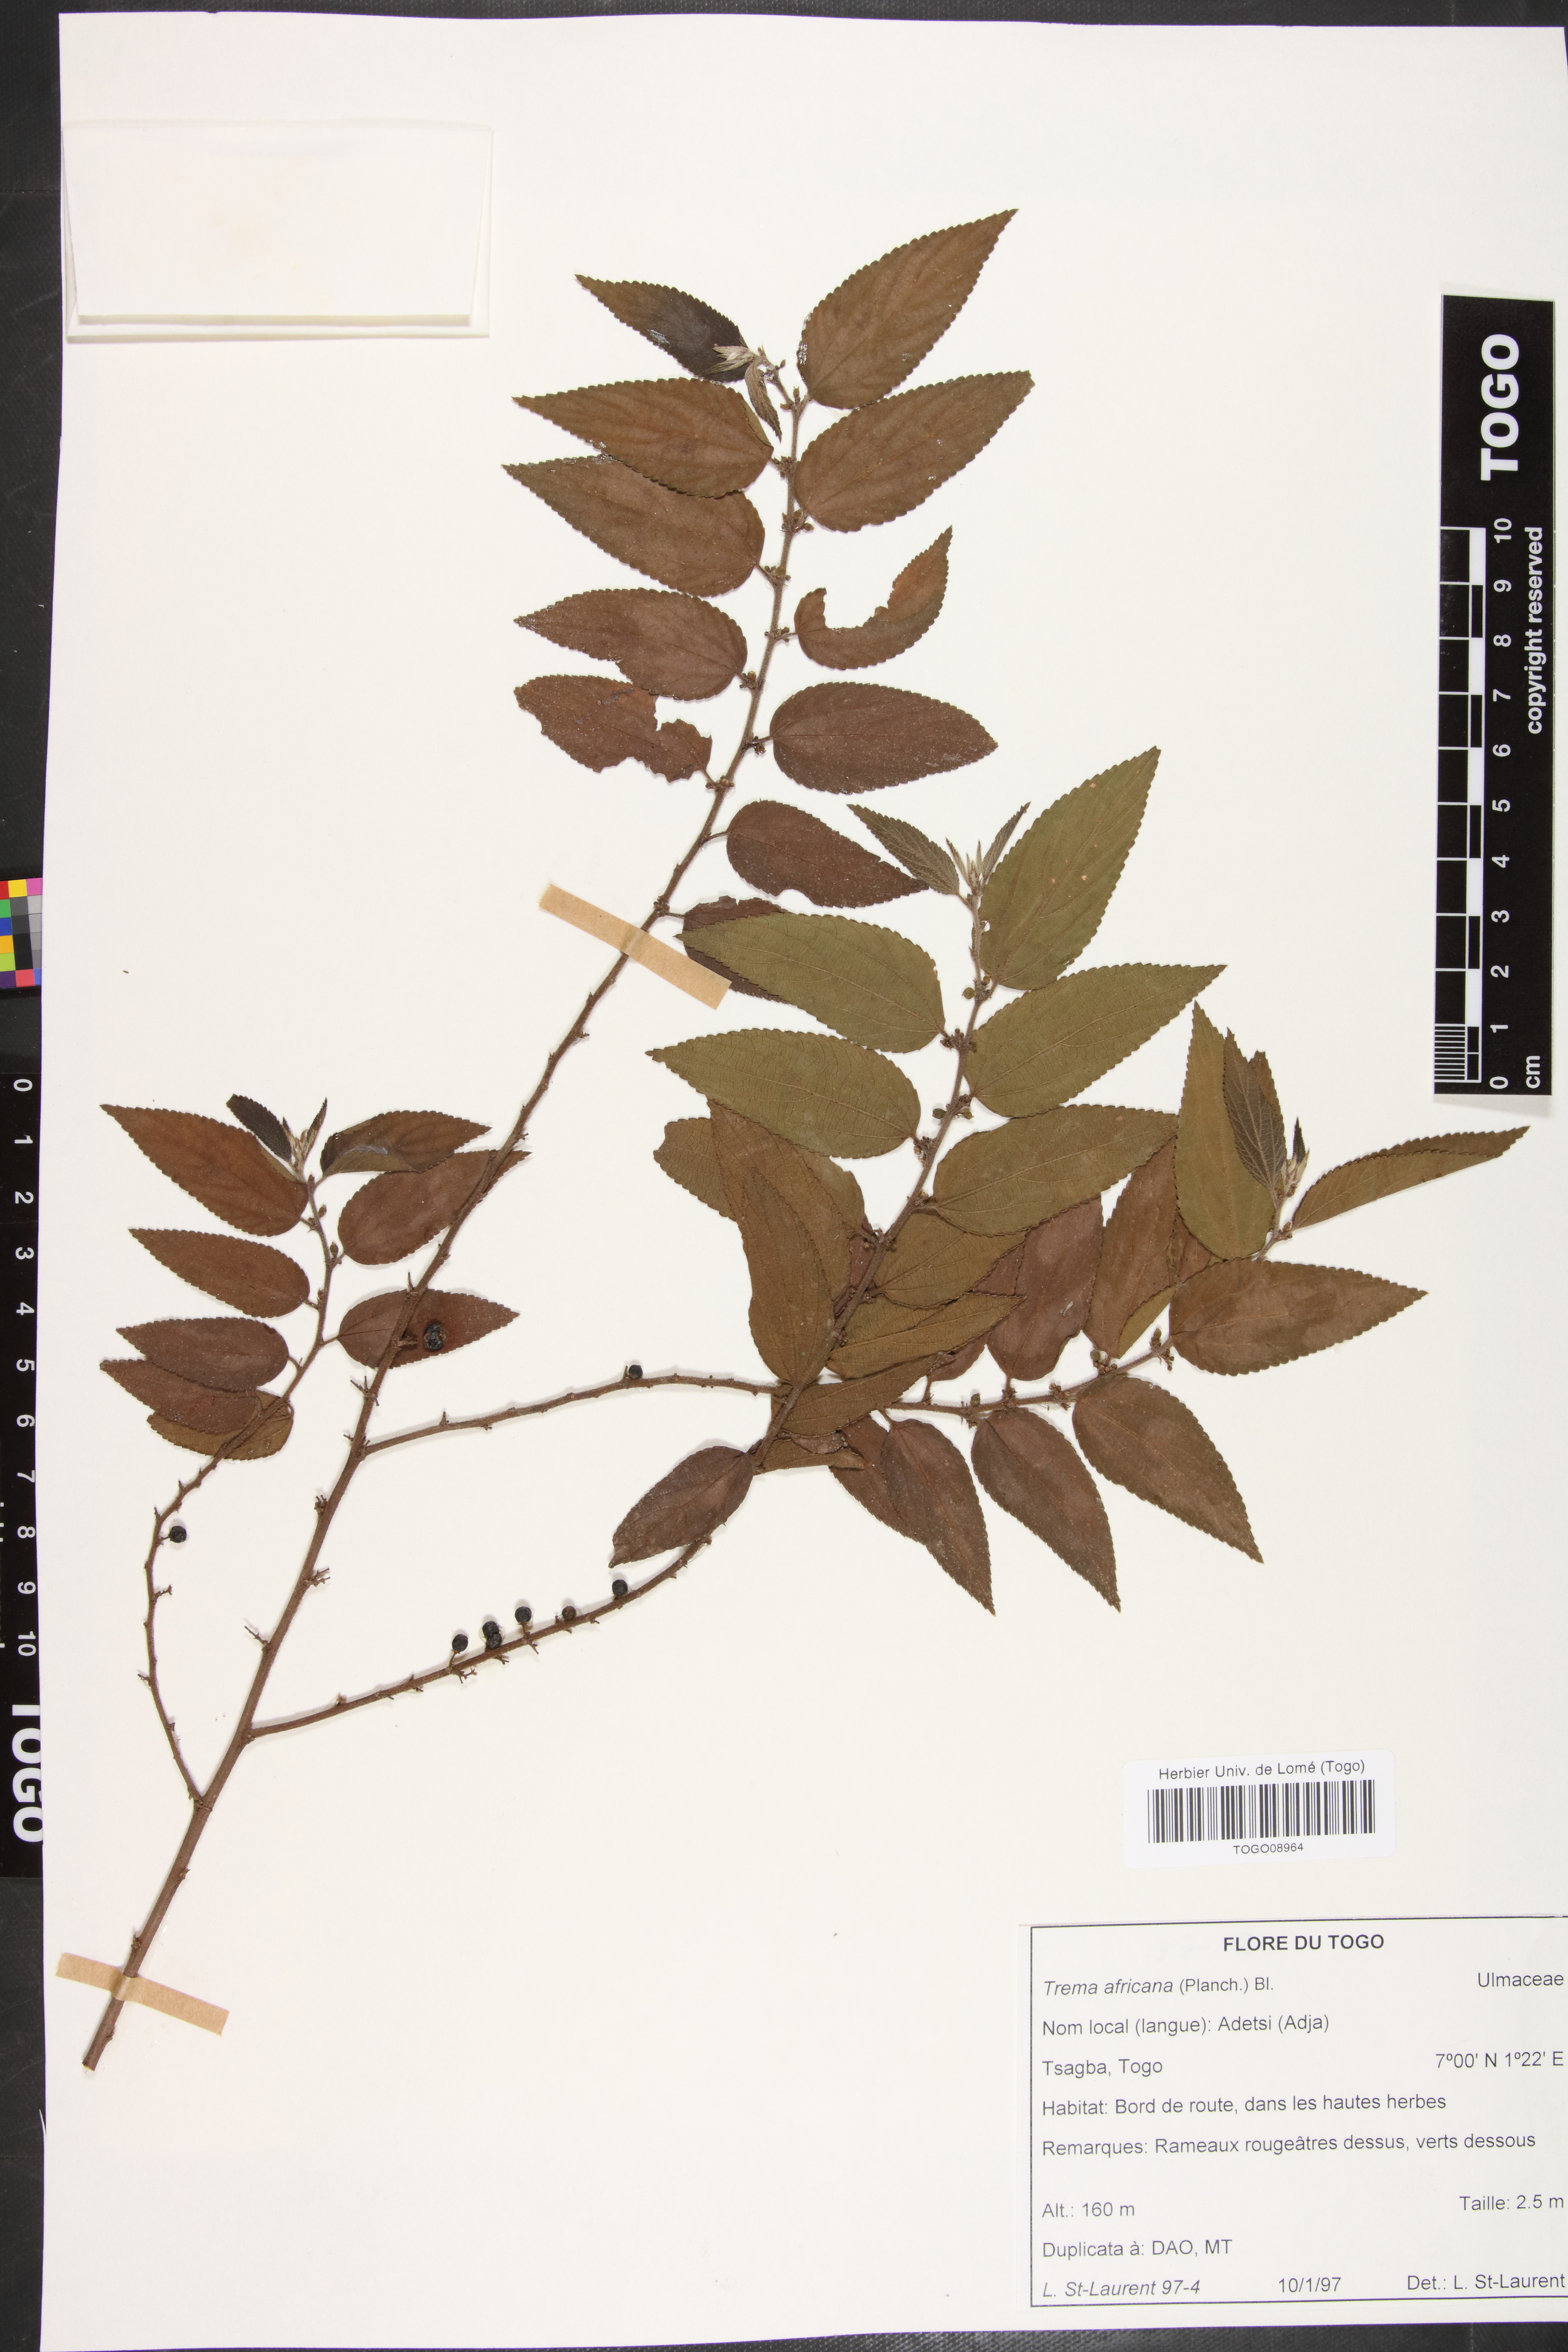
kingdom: Plantae
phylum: Tracheophyta
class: Magnoliopsida
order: Rosales
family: Cannabaceae
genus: Trema
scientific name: Trema orientale
